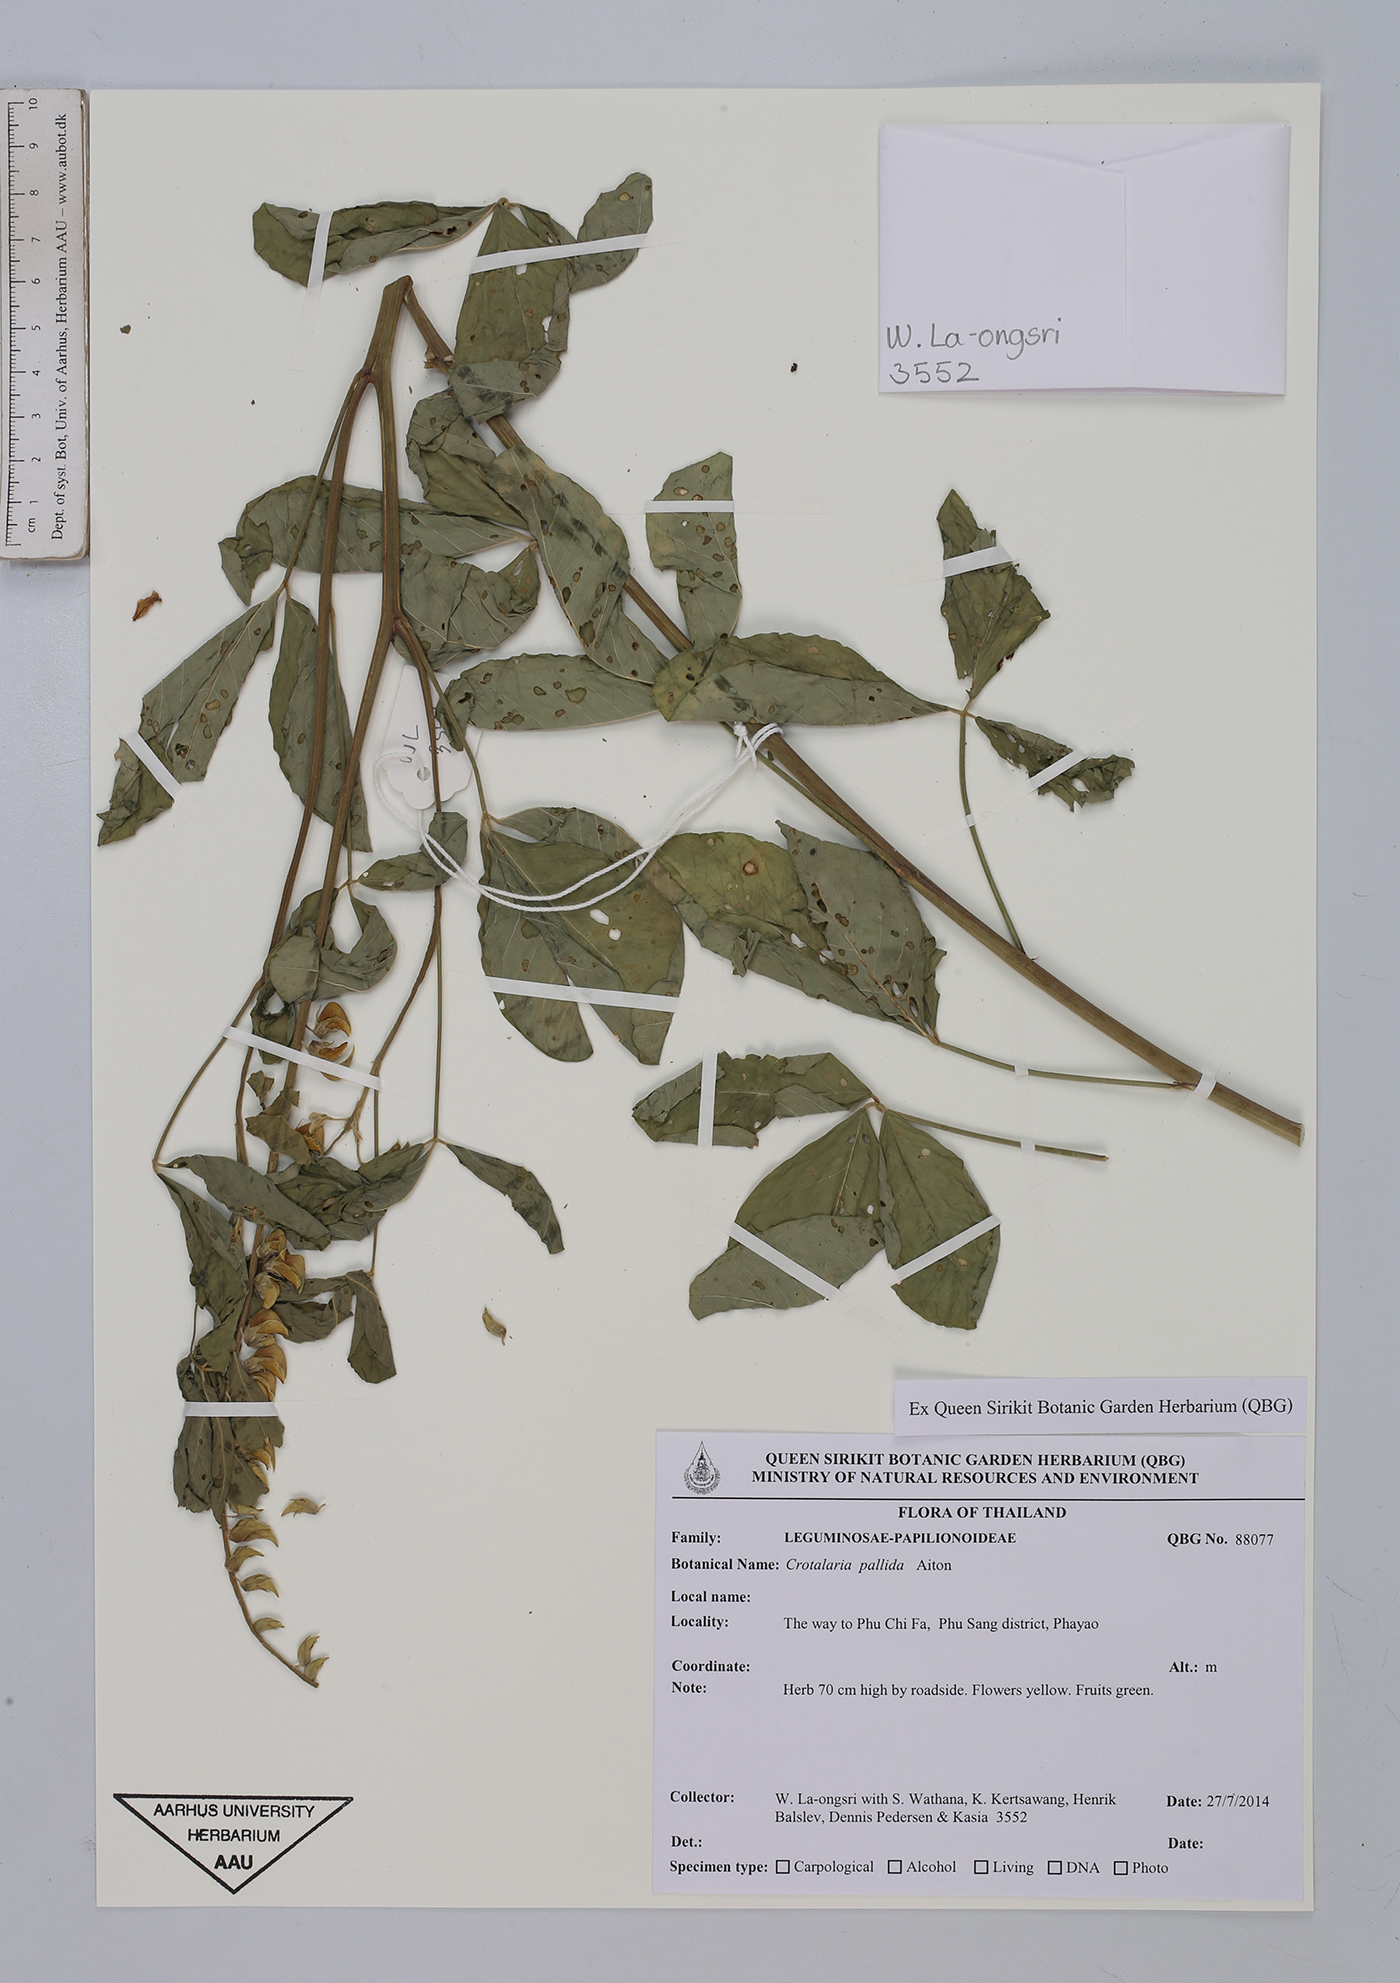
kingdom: Plantae
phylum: Tracheophyta
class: Magnoliopsida
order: Fabales
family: Fabaceae
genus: Crotalaria
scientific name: Crotalaria pallida
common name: Smooth rattlebox
